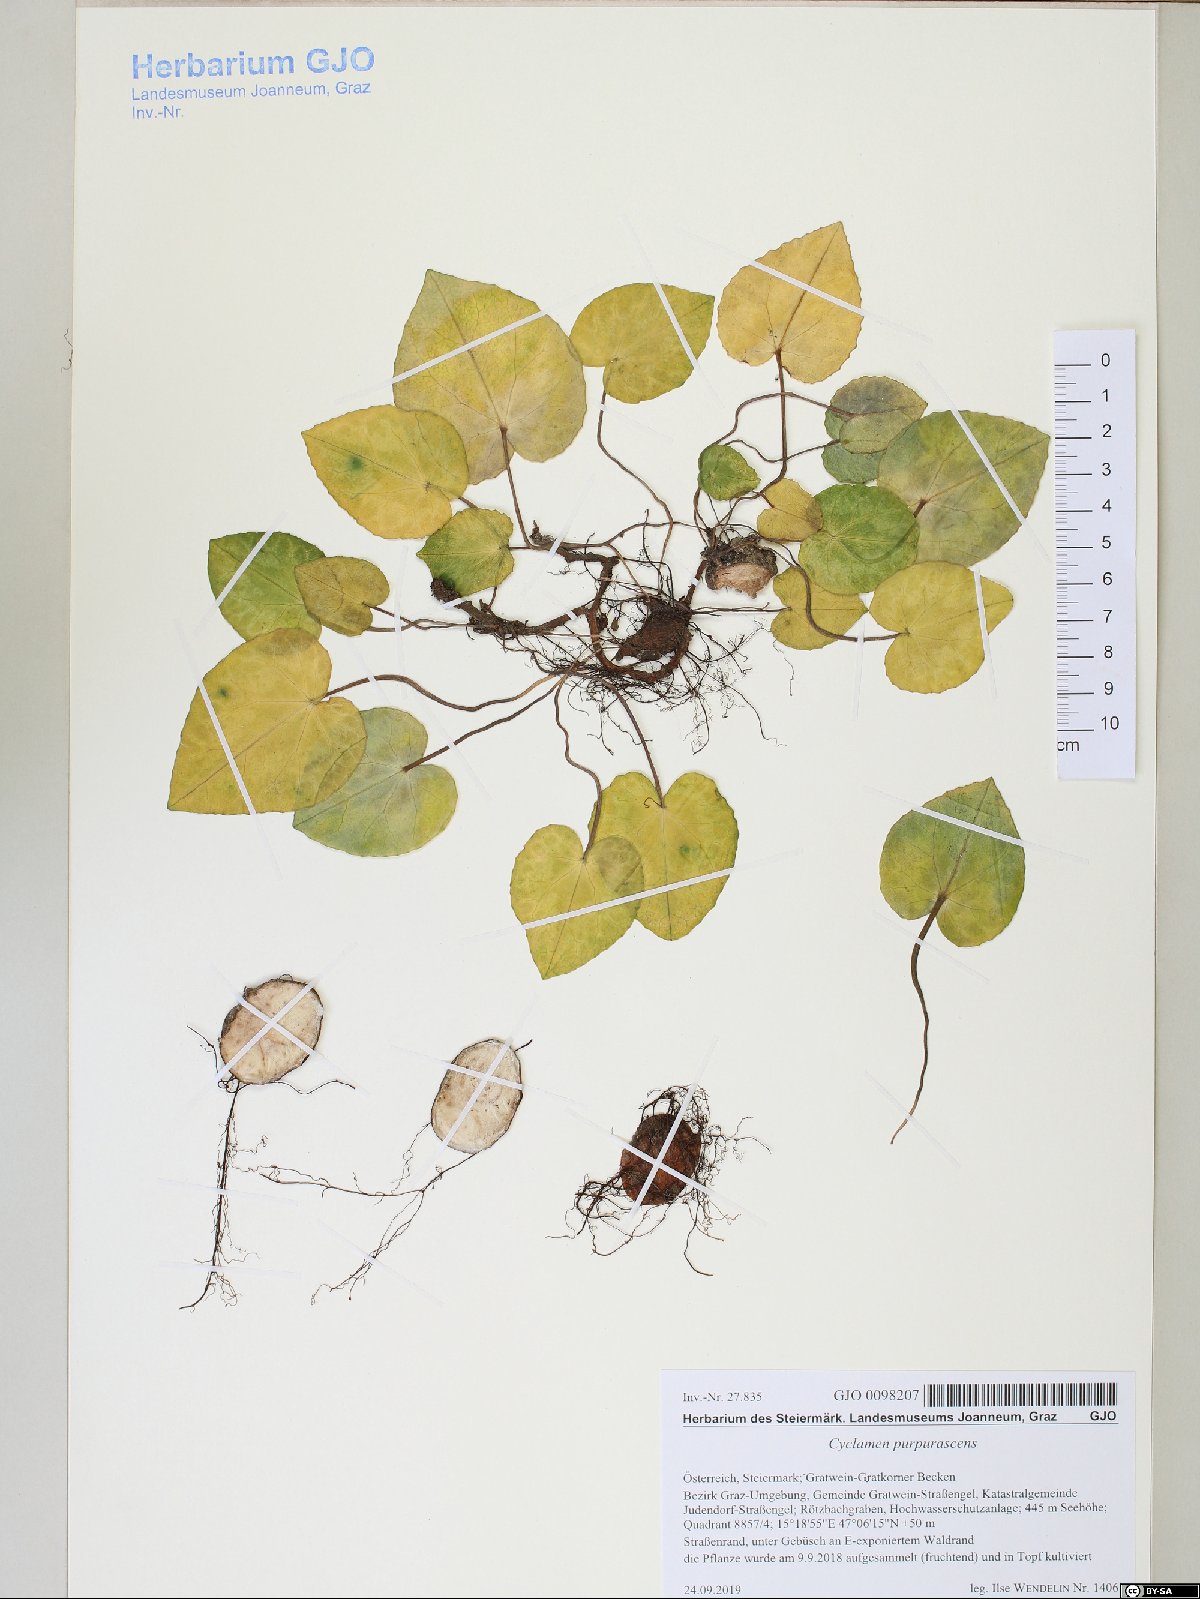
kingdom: Plantae
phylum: Tracheophyta
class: Magnoliopsida
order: Ericales
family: Primulaceae
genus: Cyclamen
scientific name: Cyclamen purpurascens
